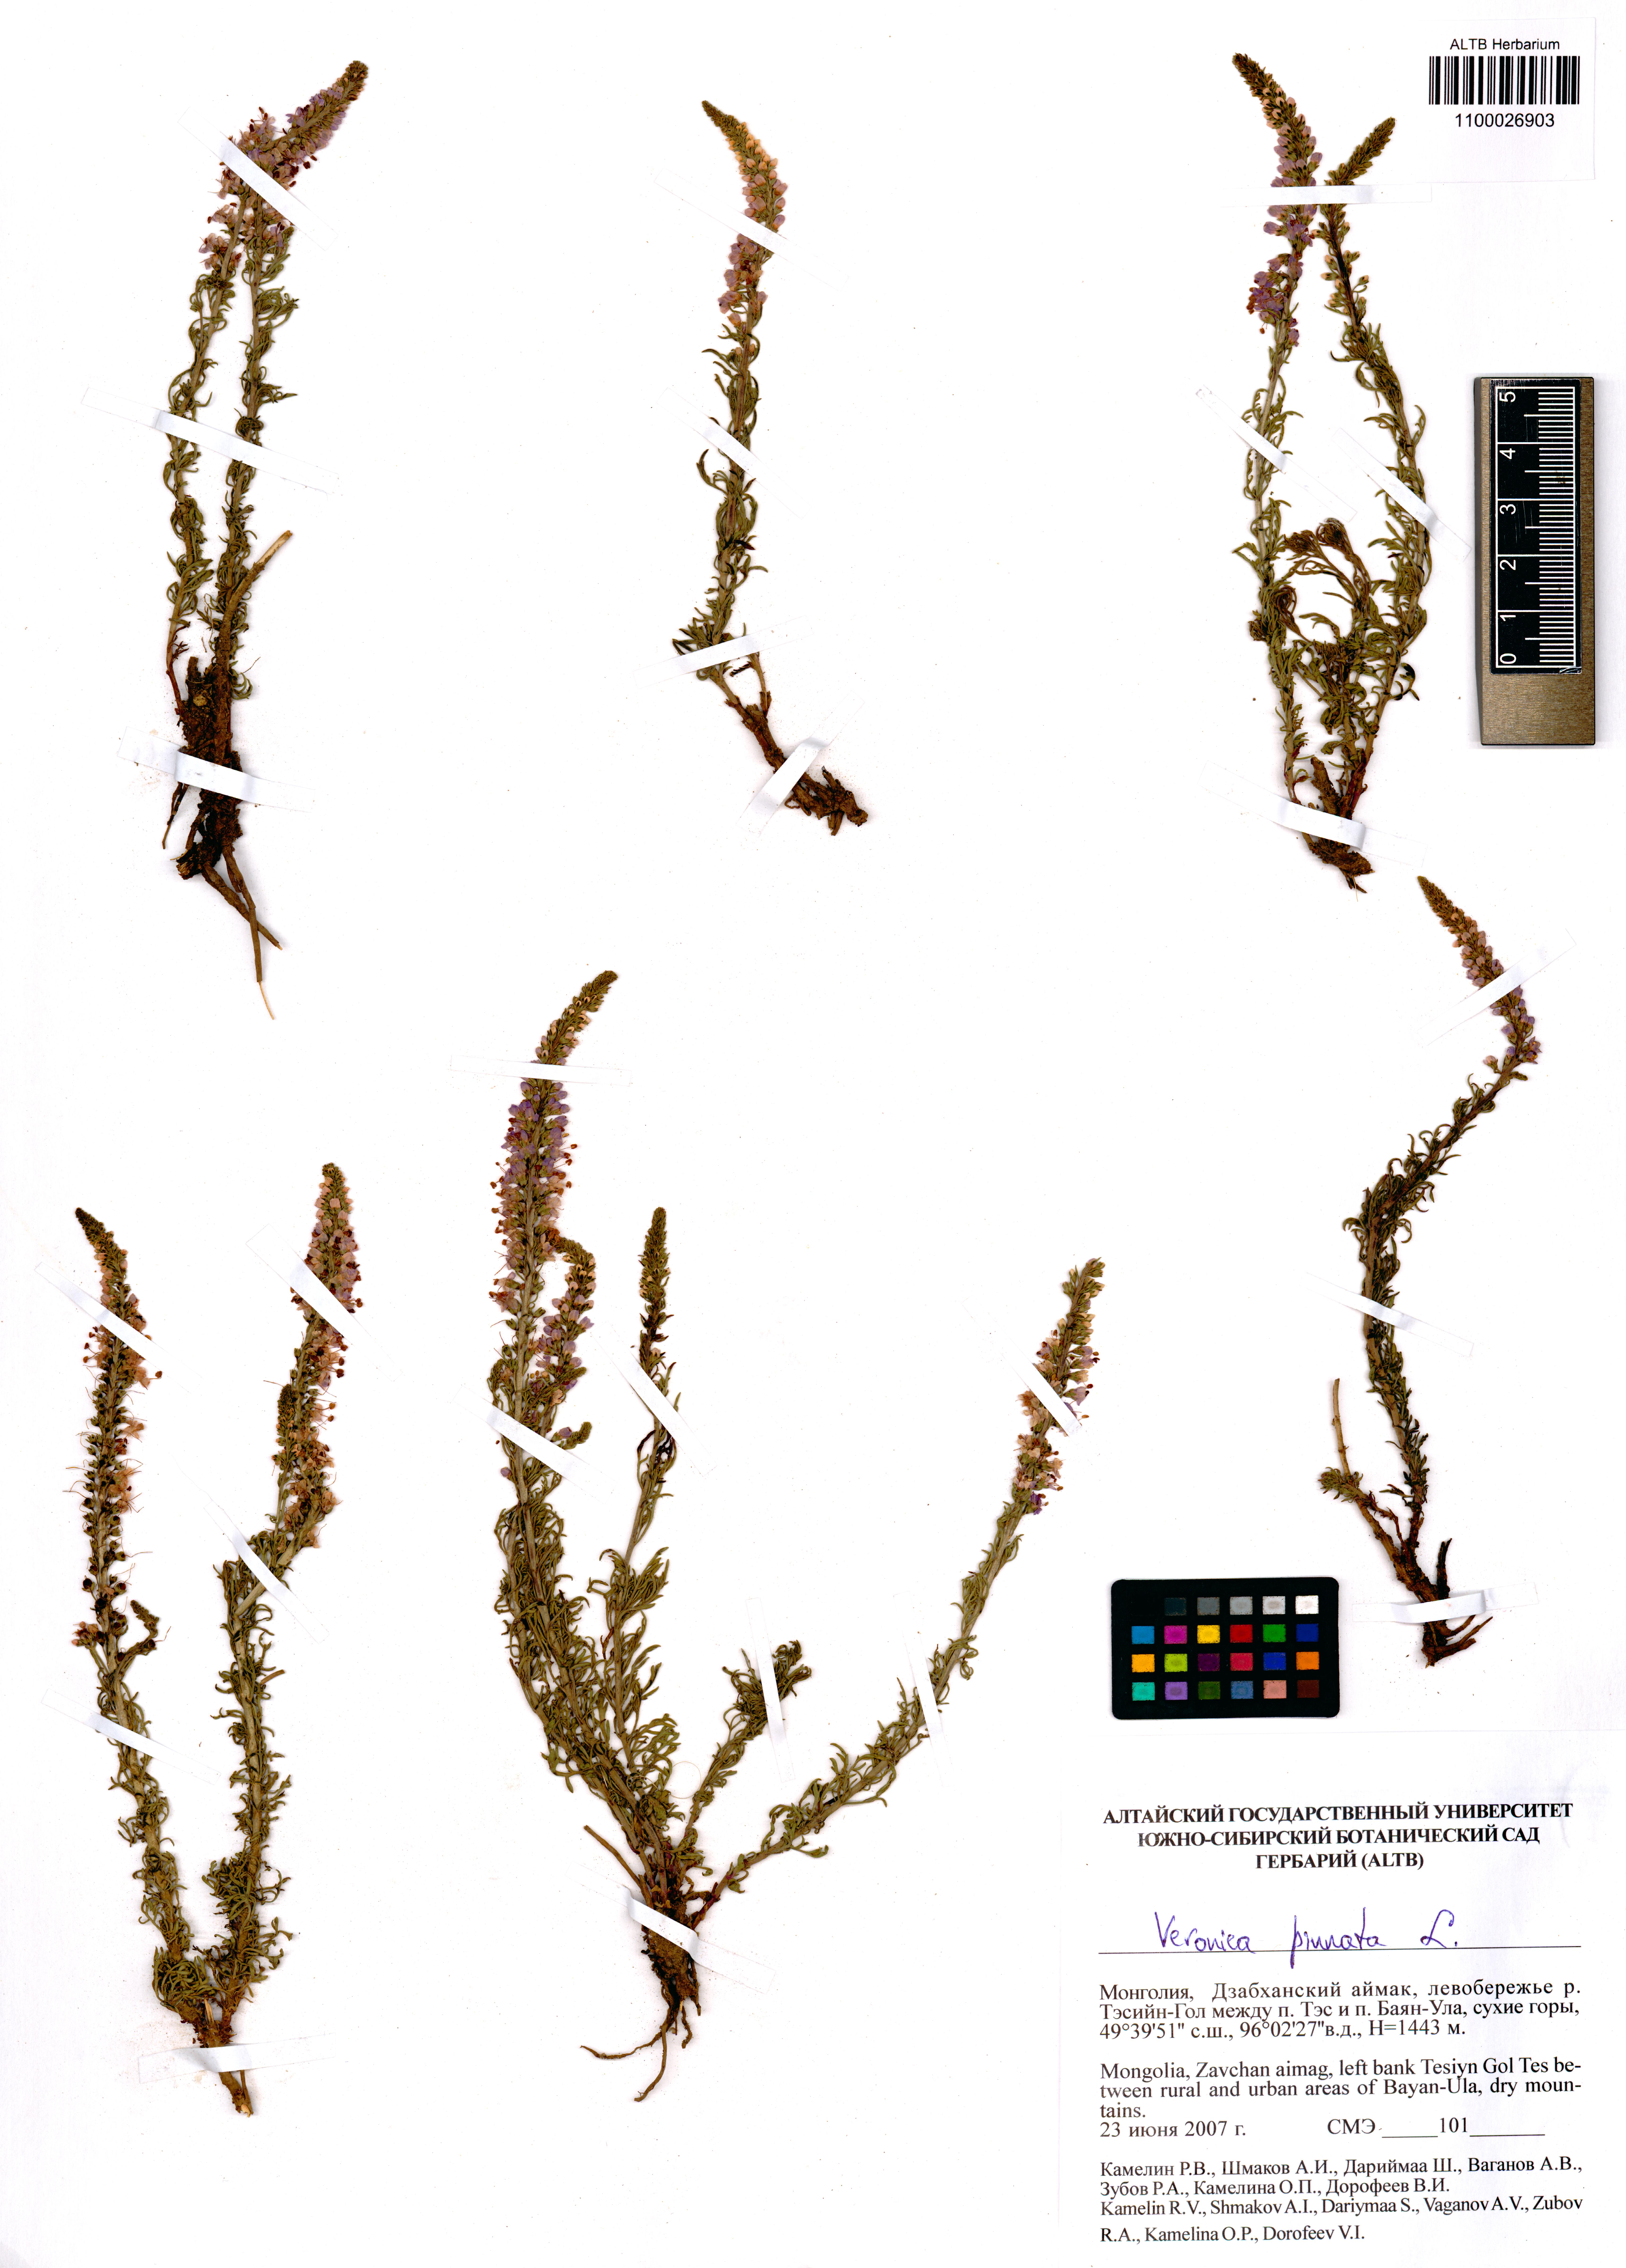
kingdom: Plantae
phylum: Tracheophyta
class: Magnoliopsida
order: Lamiales
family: Plantaginaceae
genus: Veronica
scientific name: Veronica pinnata
